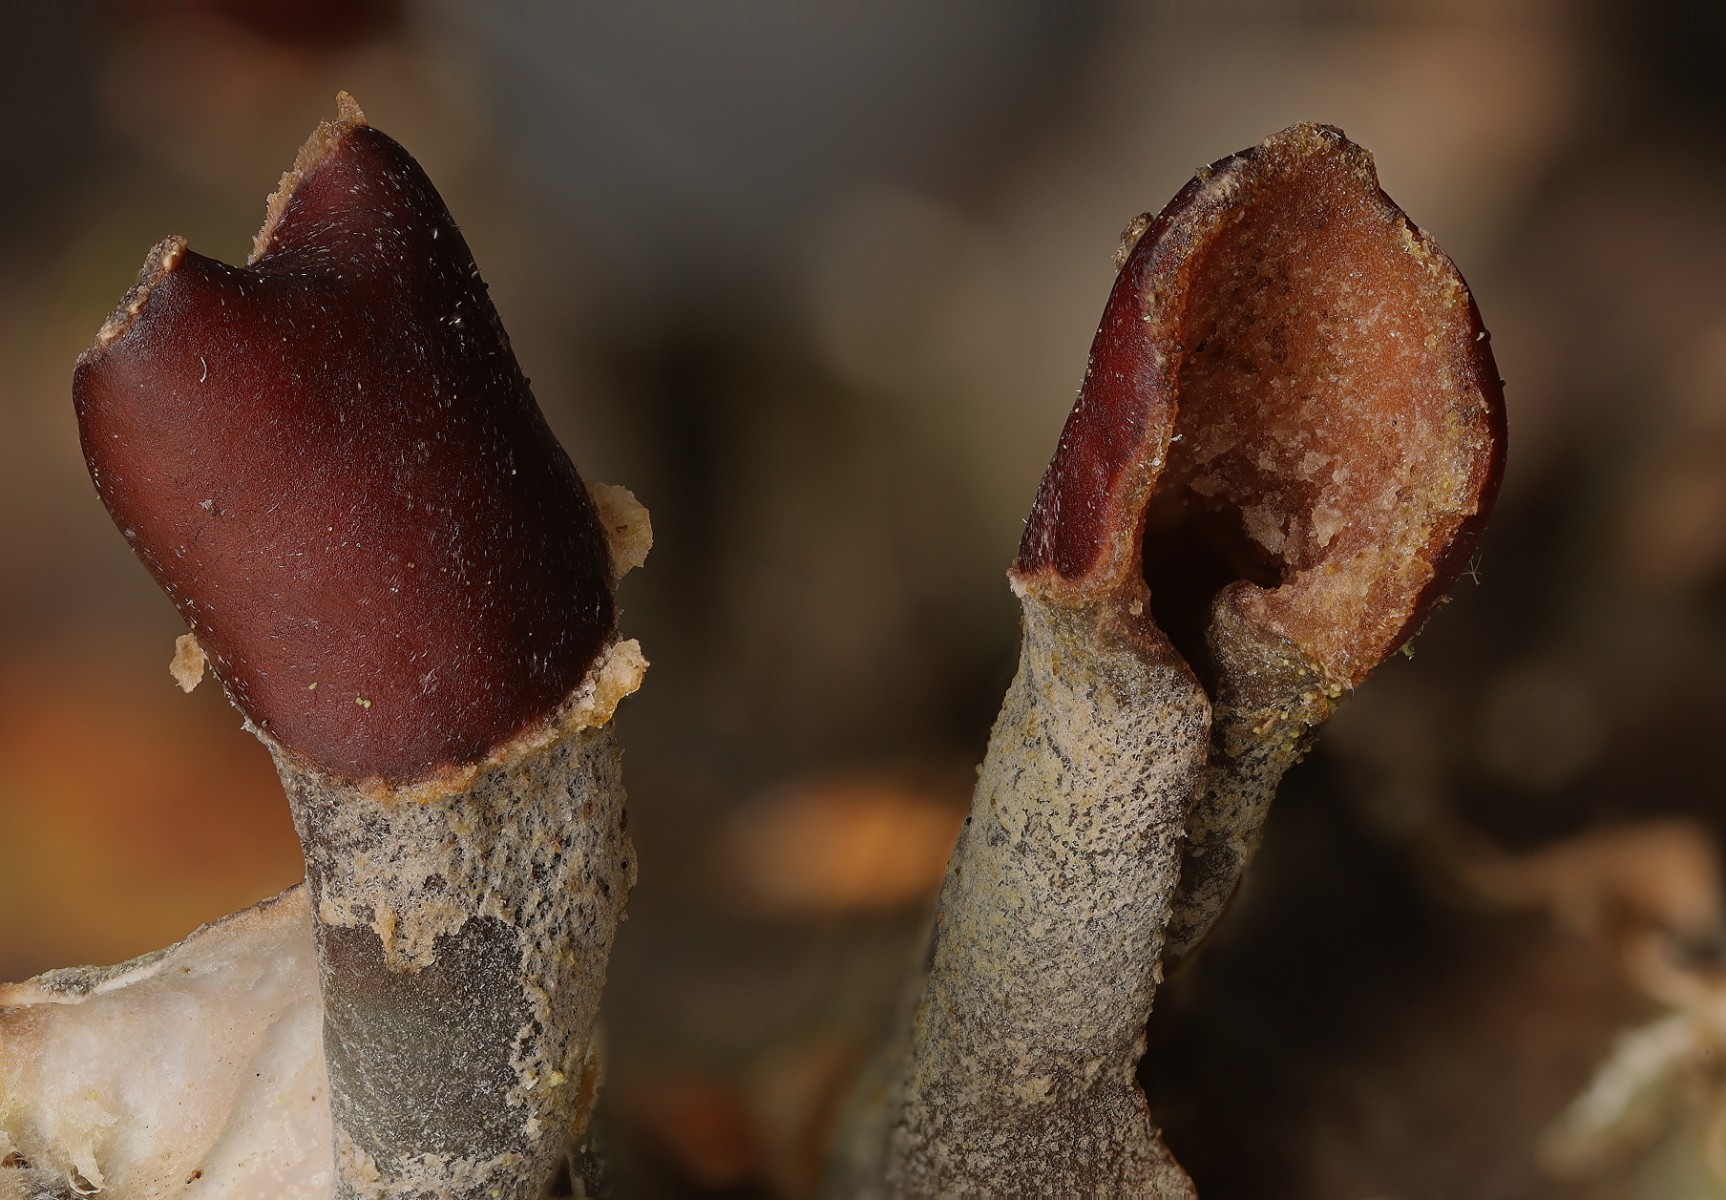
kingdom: Fungi
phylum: Ascomycota
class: Lecanoromycetes
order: Peltigerales
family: Peltigeraceae
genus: Peltigera
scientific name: Peltigera didactyla
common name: liden skjoldlav
